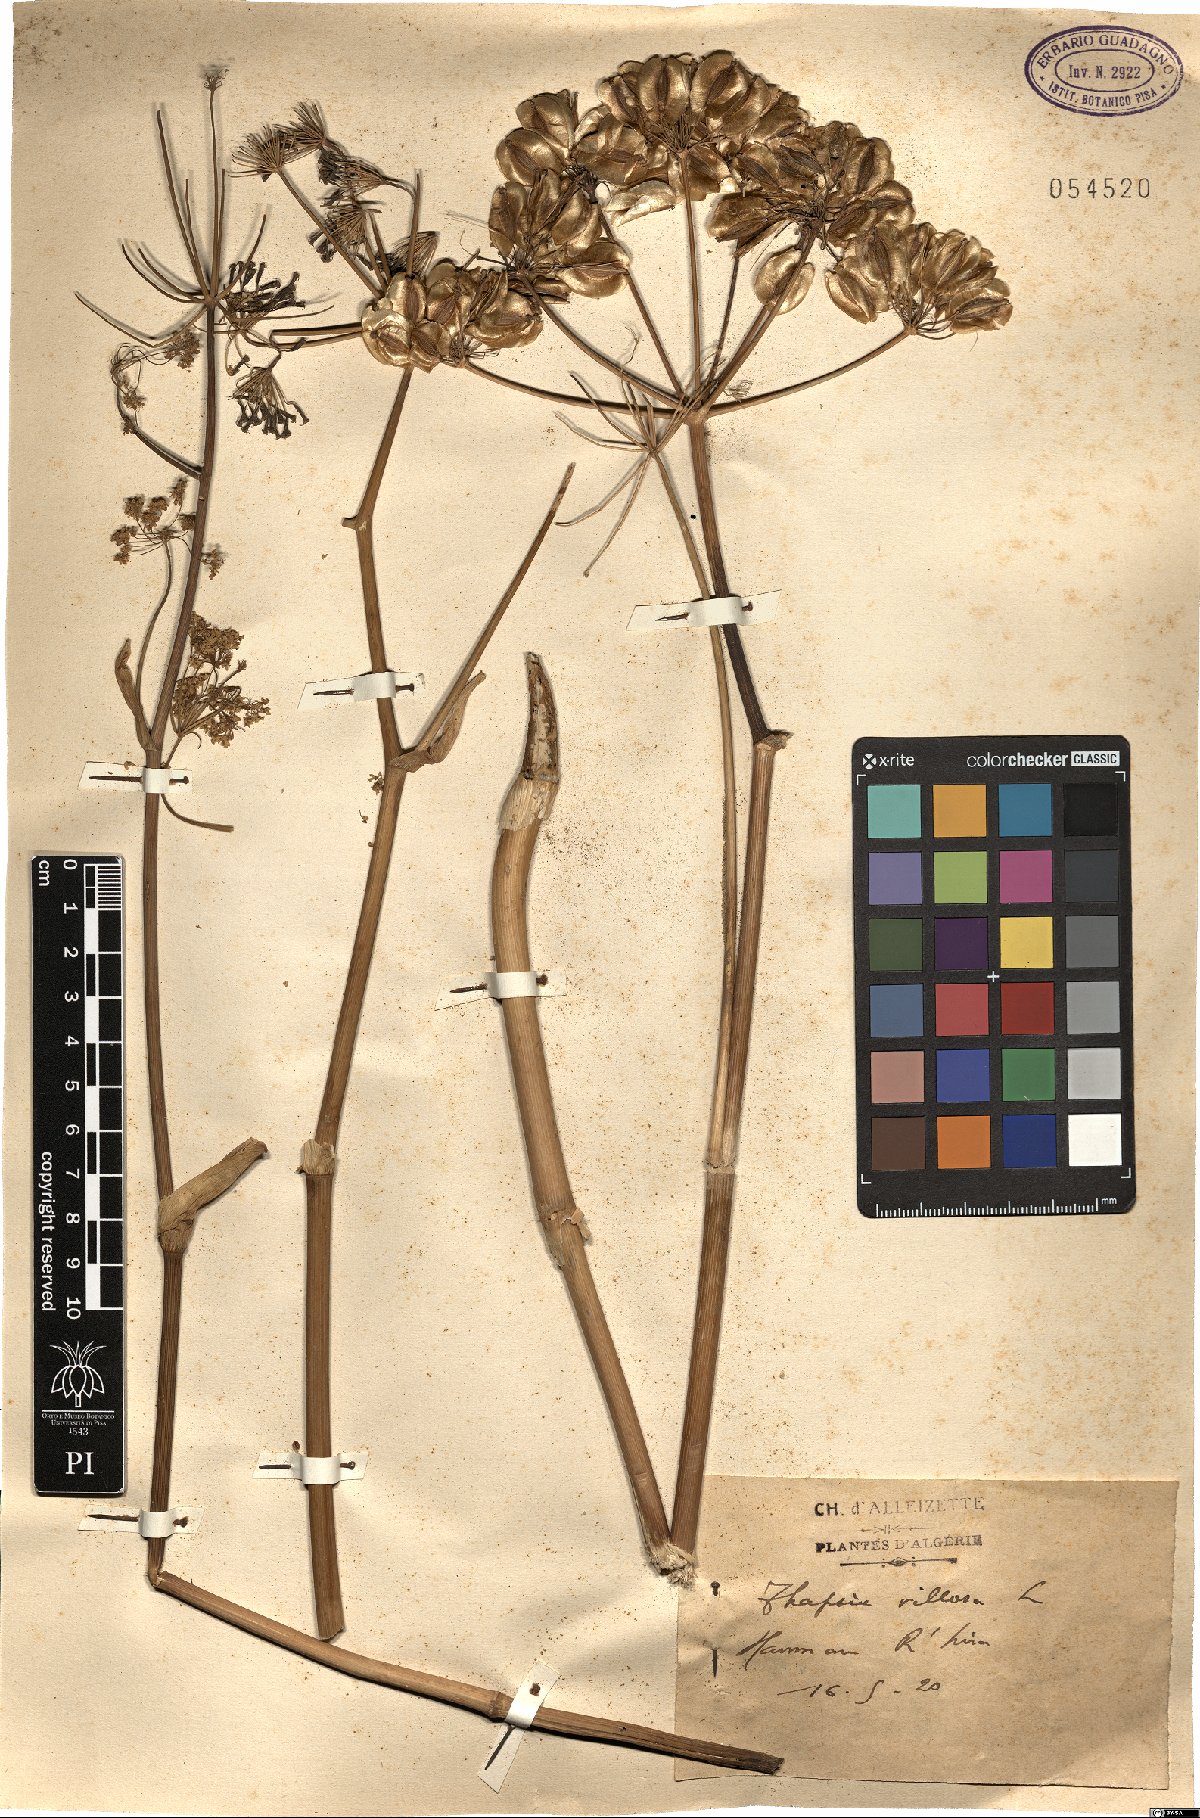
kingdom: Plantae
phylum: Tracheophyta
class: Magnoliopsida
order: Apiales
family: Apiaceae
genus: Thapsia
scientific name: Thapsia villosa
